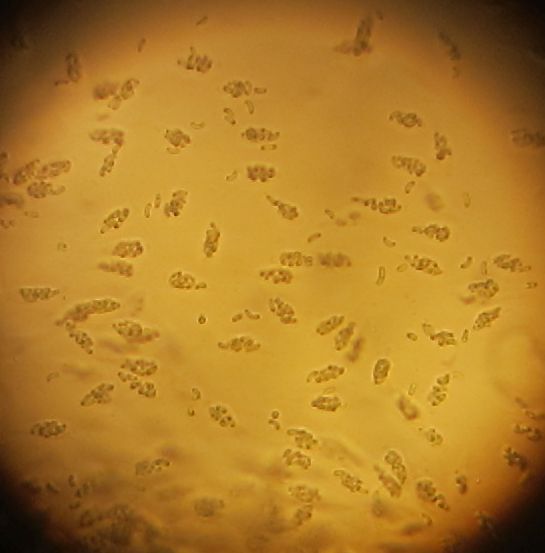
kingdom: Fungi
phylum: Ascomycota
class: Sordariomycetes
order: Xylariales
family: Diatrypaceae
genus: Peroneutypa
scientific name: Peroneutypa scoparia
